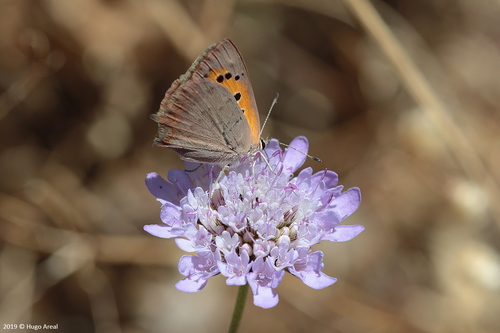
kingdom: Animalia
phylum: Arthropoda
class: Insecta
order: Lepidoptera
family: Lycaenidae
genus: Lycaena
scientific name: Lycaena phlaeas
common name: Small copper
